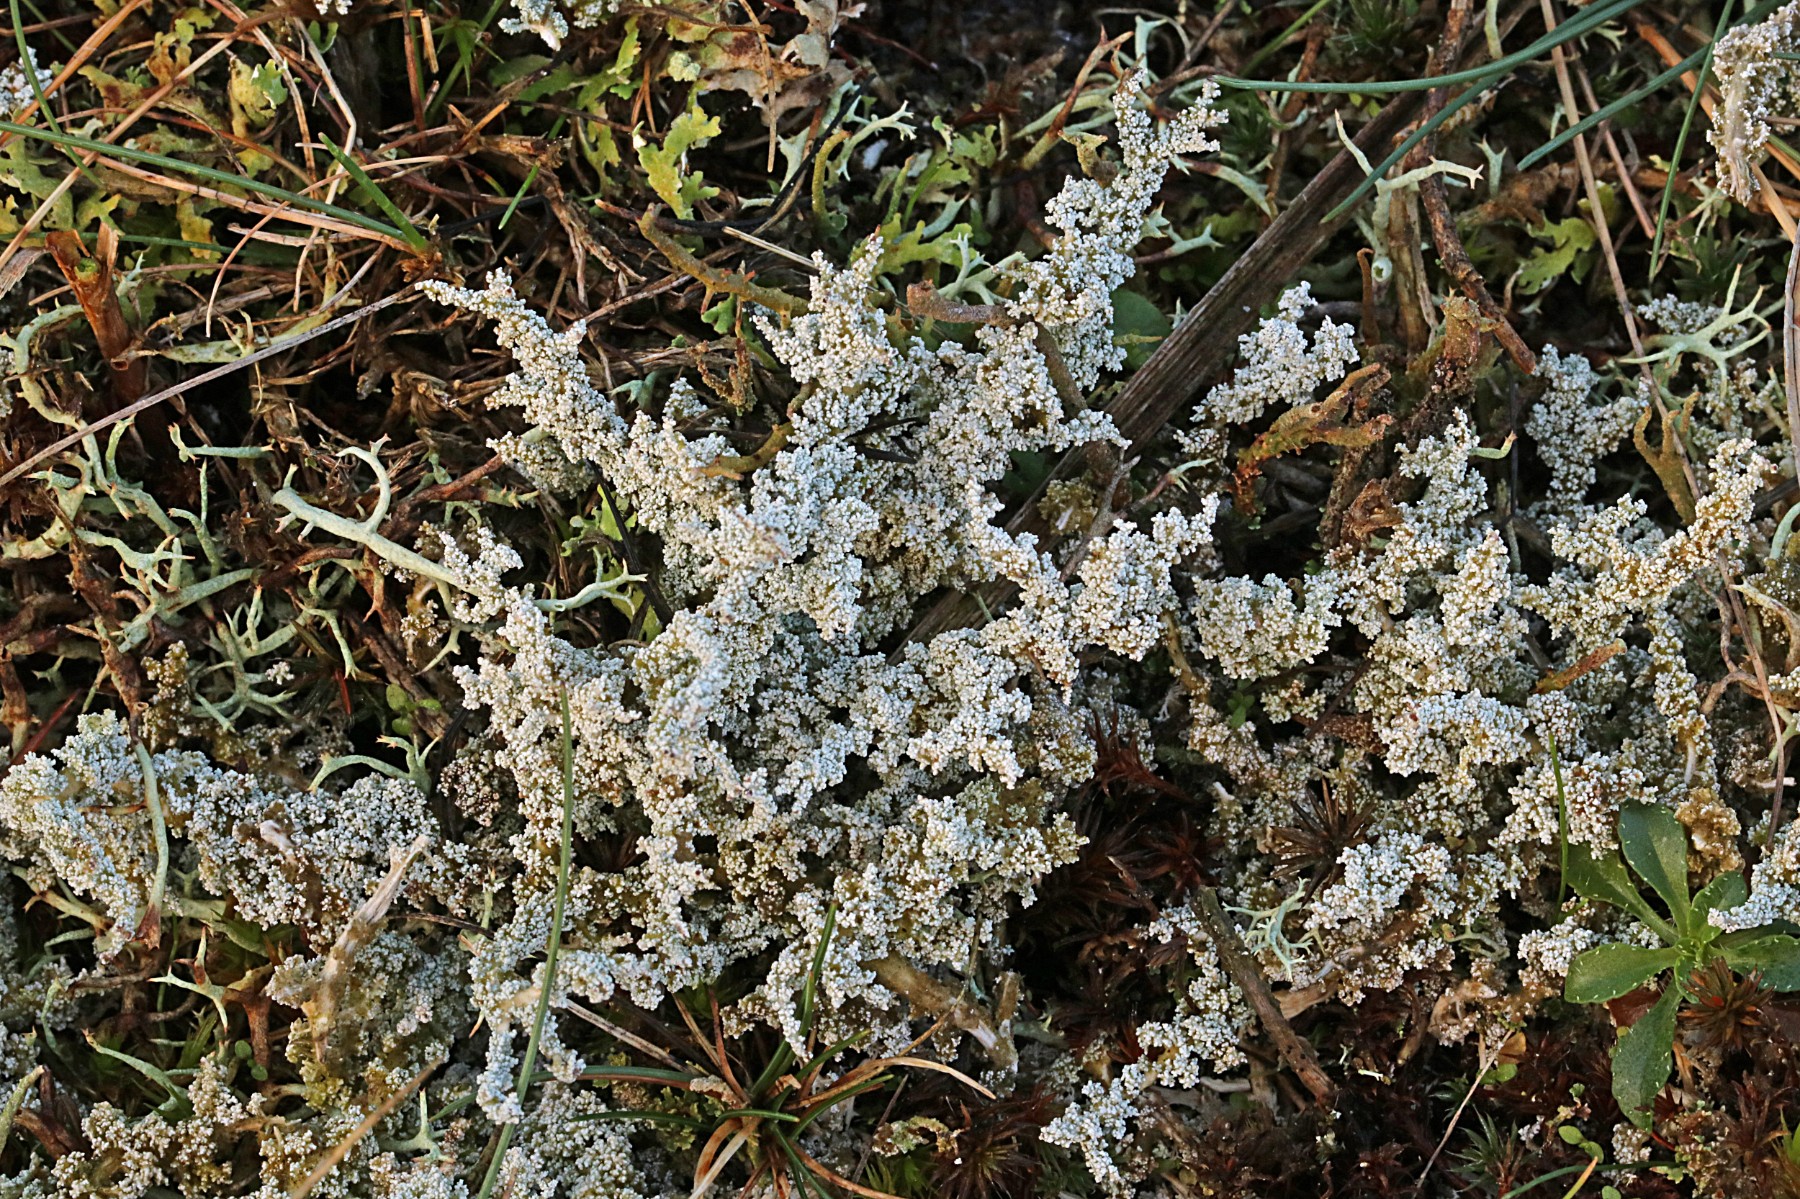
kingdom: Fungi
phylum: Ascomycota
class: Lecanoromycetes
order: Lecanorales
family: Stereocaulaceae
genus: Stereocaulon
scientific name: Stereocaulon saxatile
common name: klit-korallav
